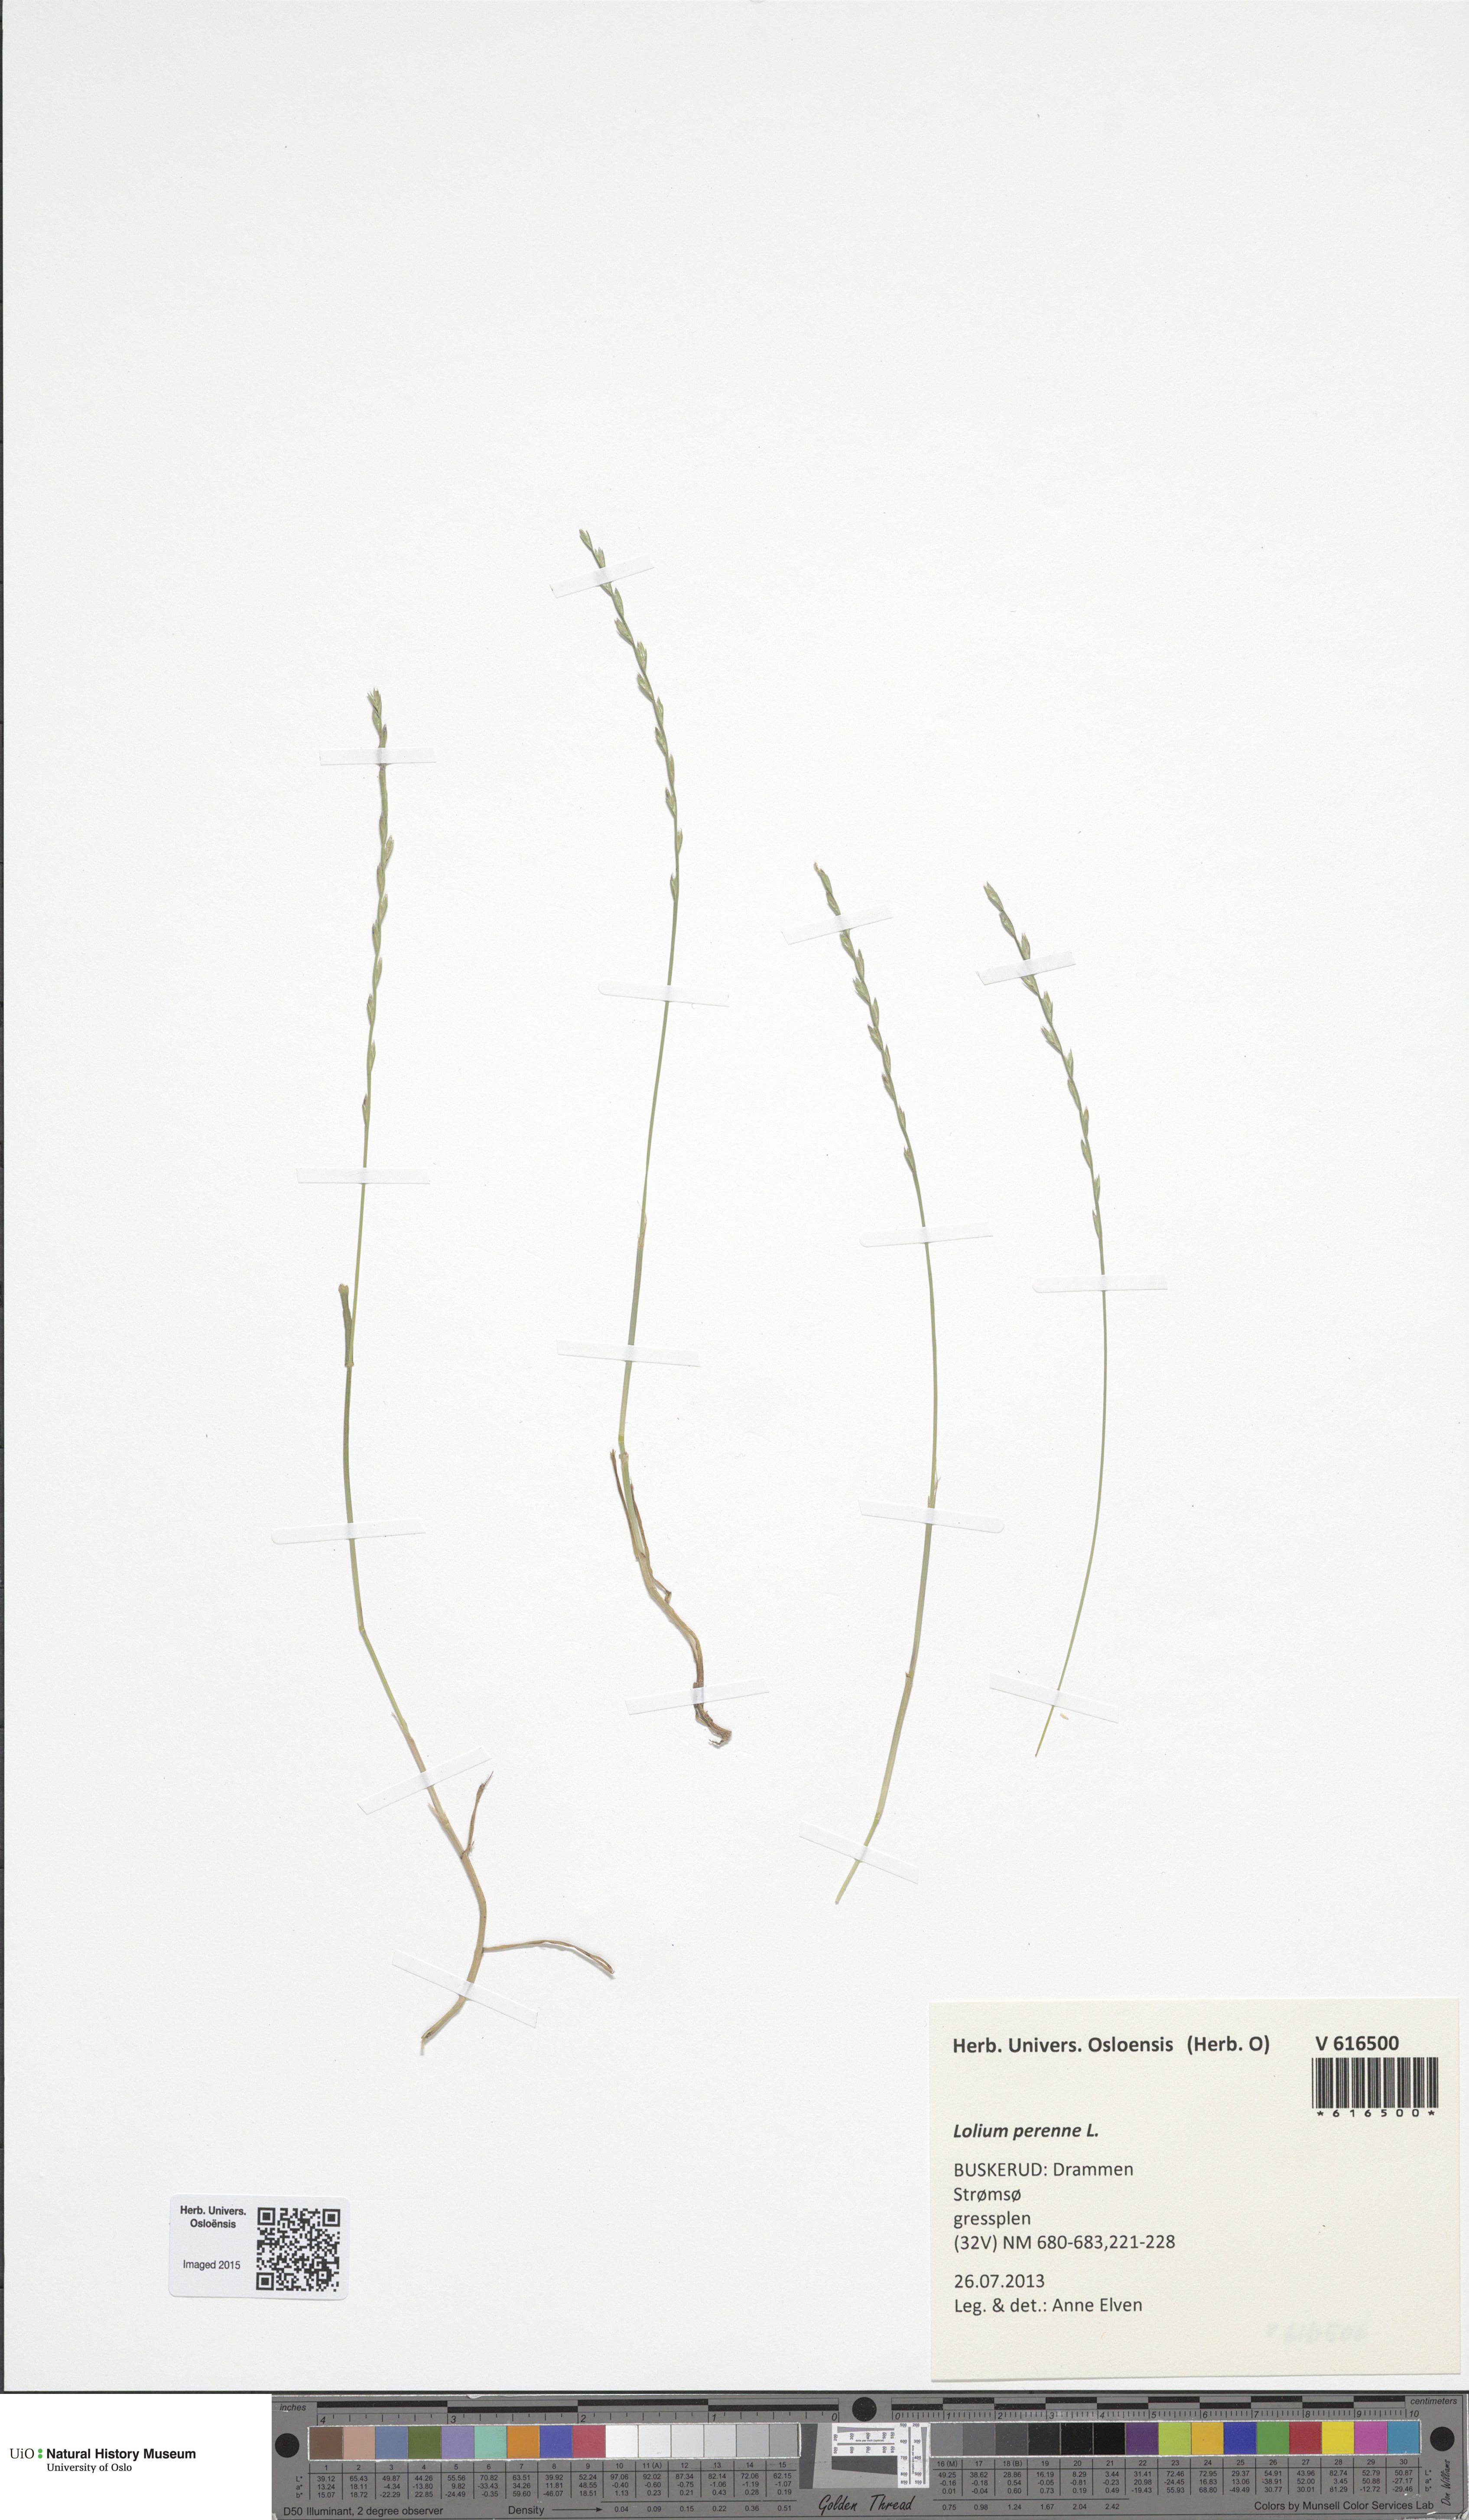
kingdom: Plantae
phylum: Tracheophyta
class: Liliopsida
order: Poales
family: Poaceae
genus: Lolium
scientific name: Lolium perenne
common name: Perennial ryegrass
